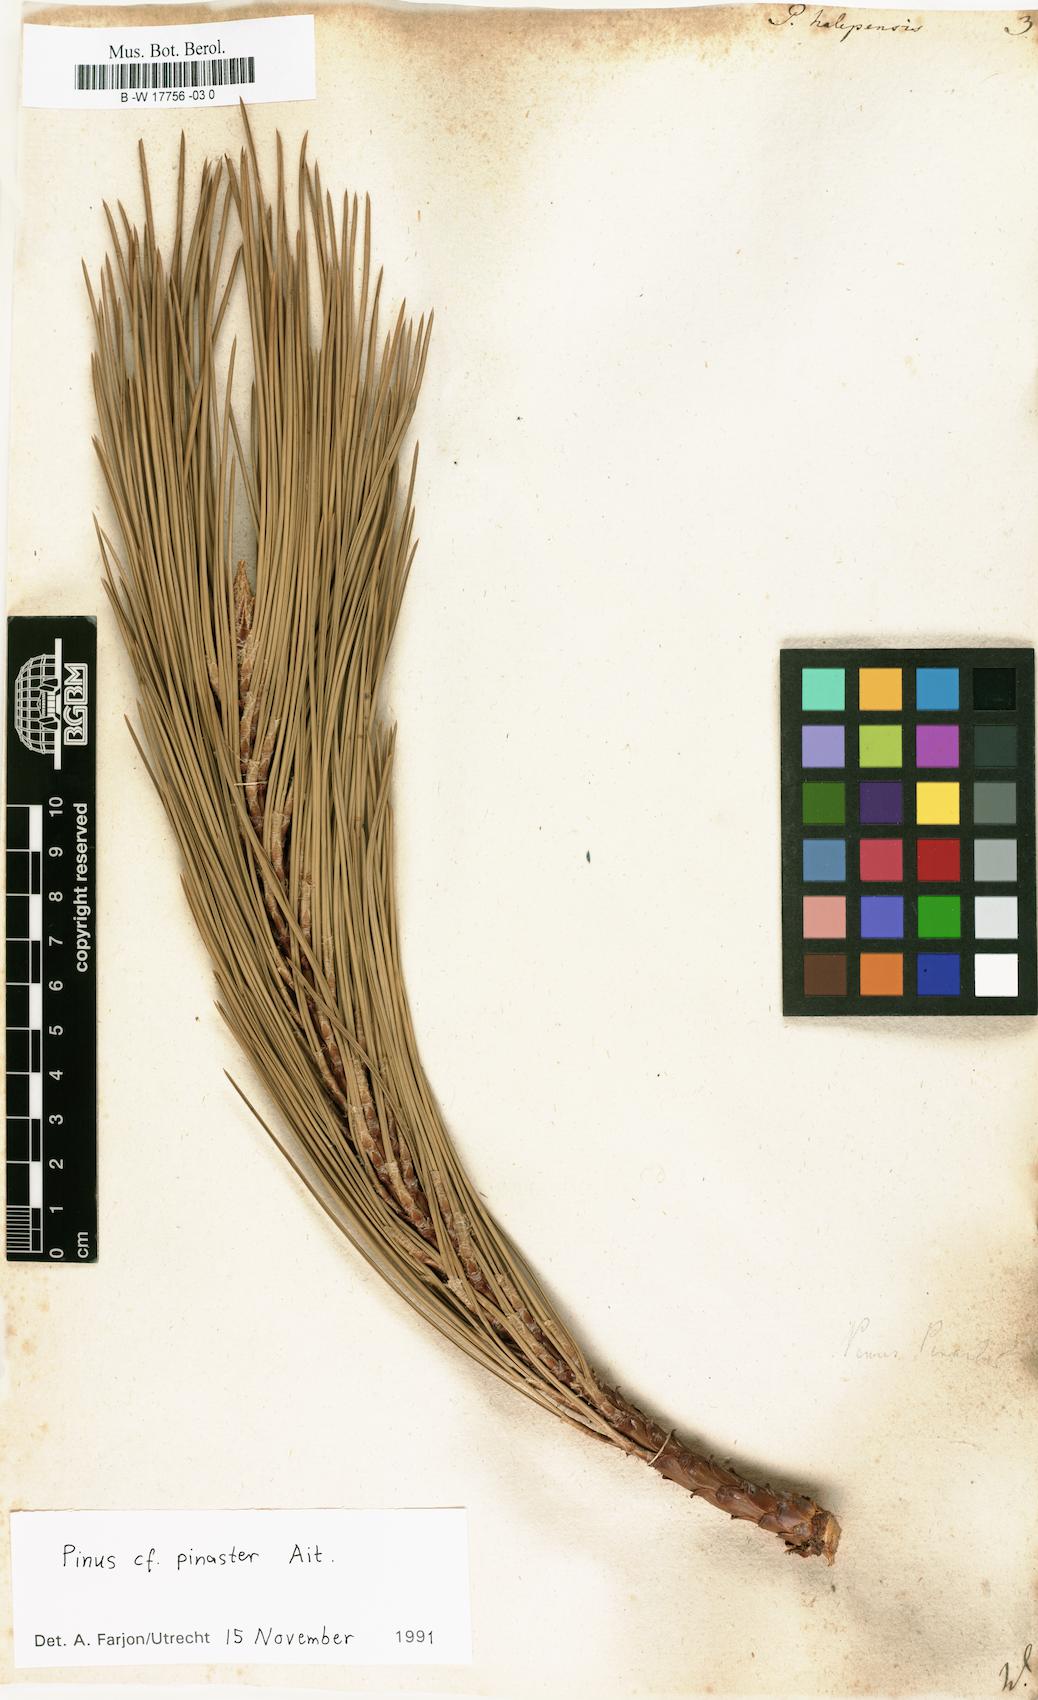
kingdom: Plantae
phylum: Tracheophyta
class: Pinopsida
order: Pinales
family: Pinaceae
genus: Pinus
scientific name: Pinus halepensis
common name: Aleppo pine
